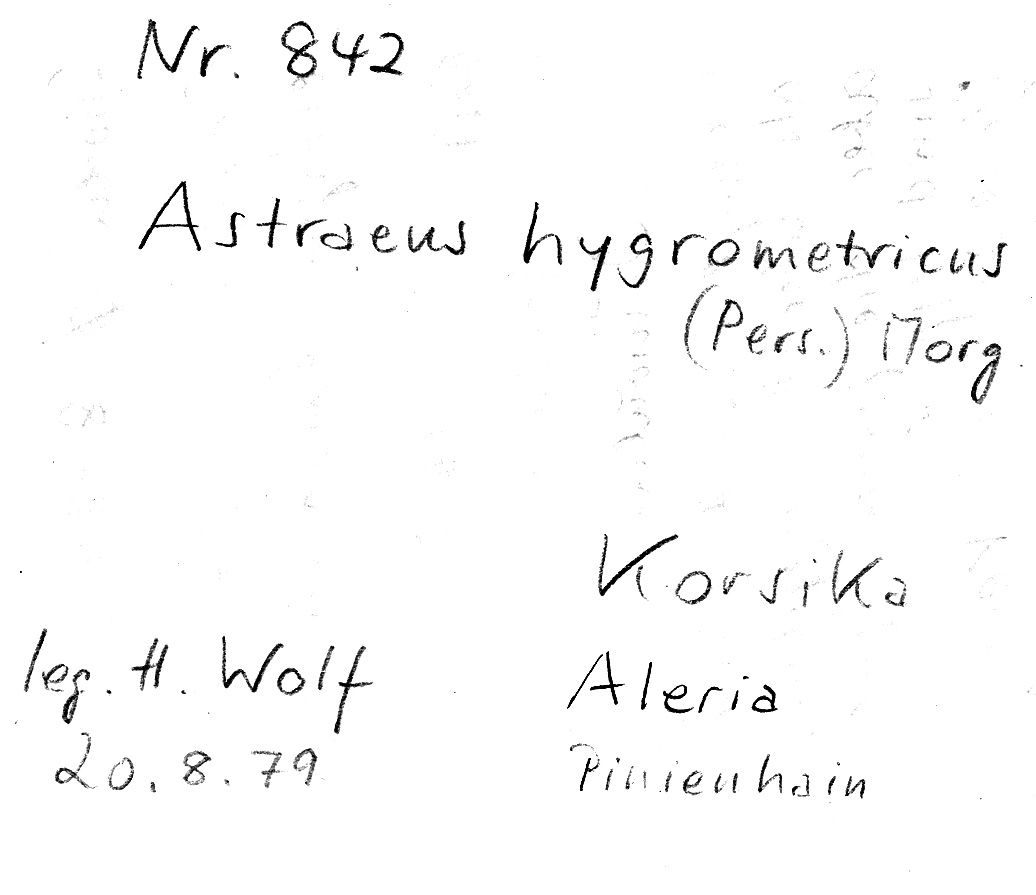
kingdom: Fungi
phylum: Basidiomycota
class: Agaricomycetes
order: Boletales
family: Diplocystidiaceae
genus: Astraeus
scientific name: Astraeus hygrometricus
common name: Barometer earthstar
